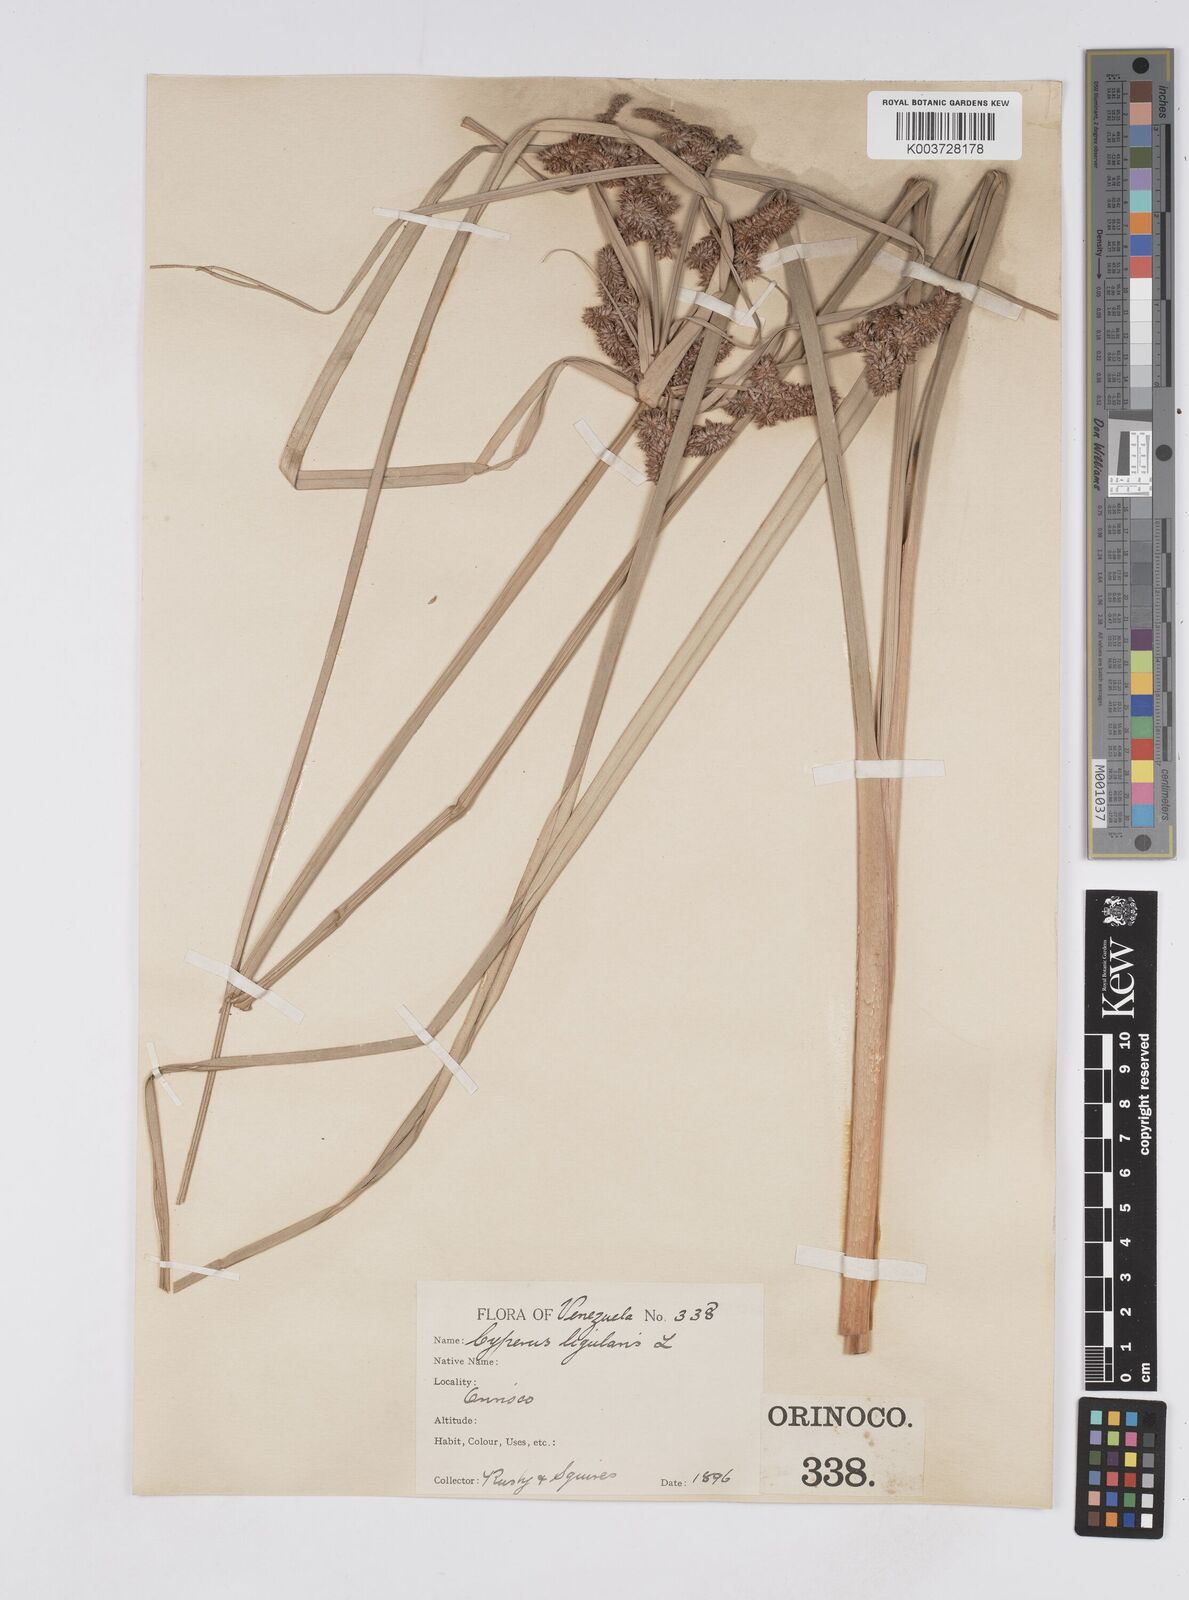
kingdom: Plantae
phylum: Tracheophyta
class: Liliopsida
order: Poales
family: Cyperaceae
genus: Cyperus
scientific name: Cyperus ligularis
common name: Swamp flat sedge
